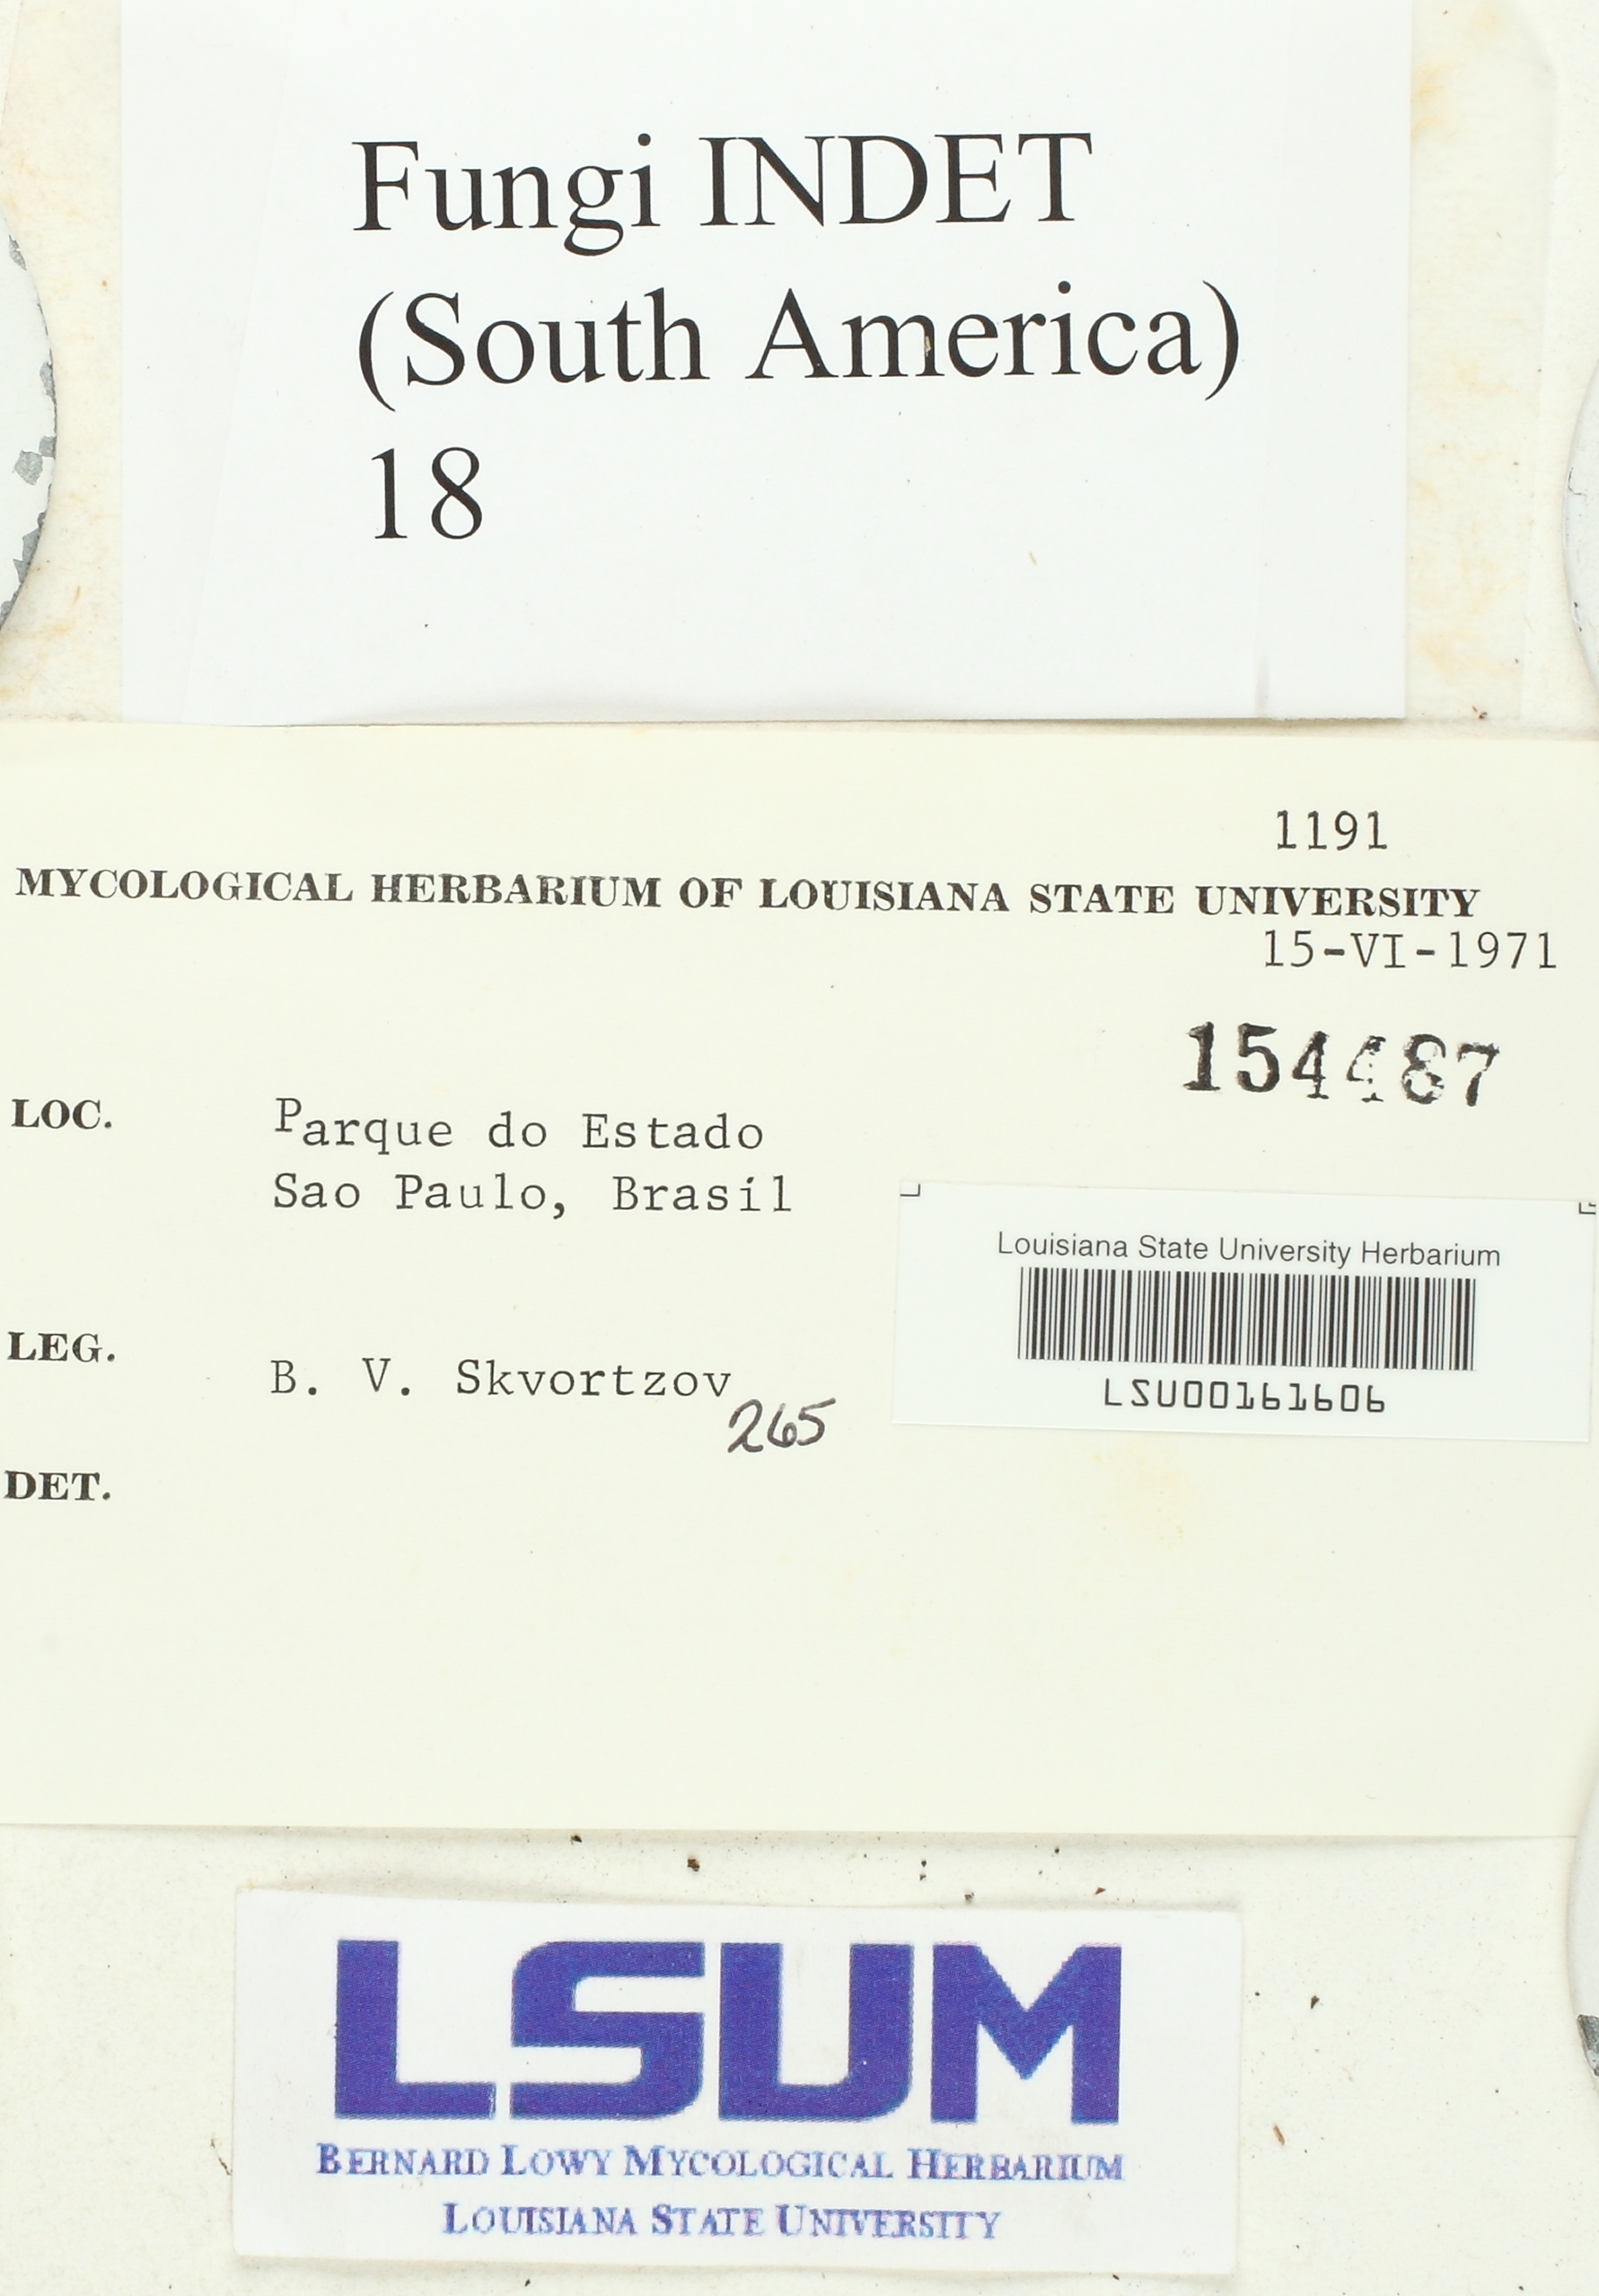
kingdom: Fungi
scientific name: Fungi
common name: Fungi
